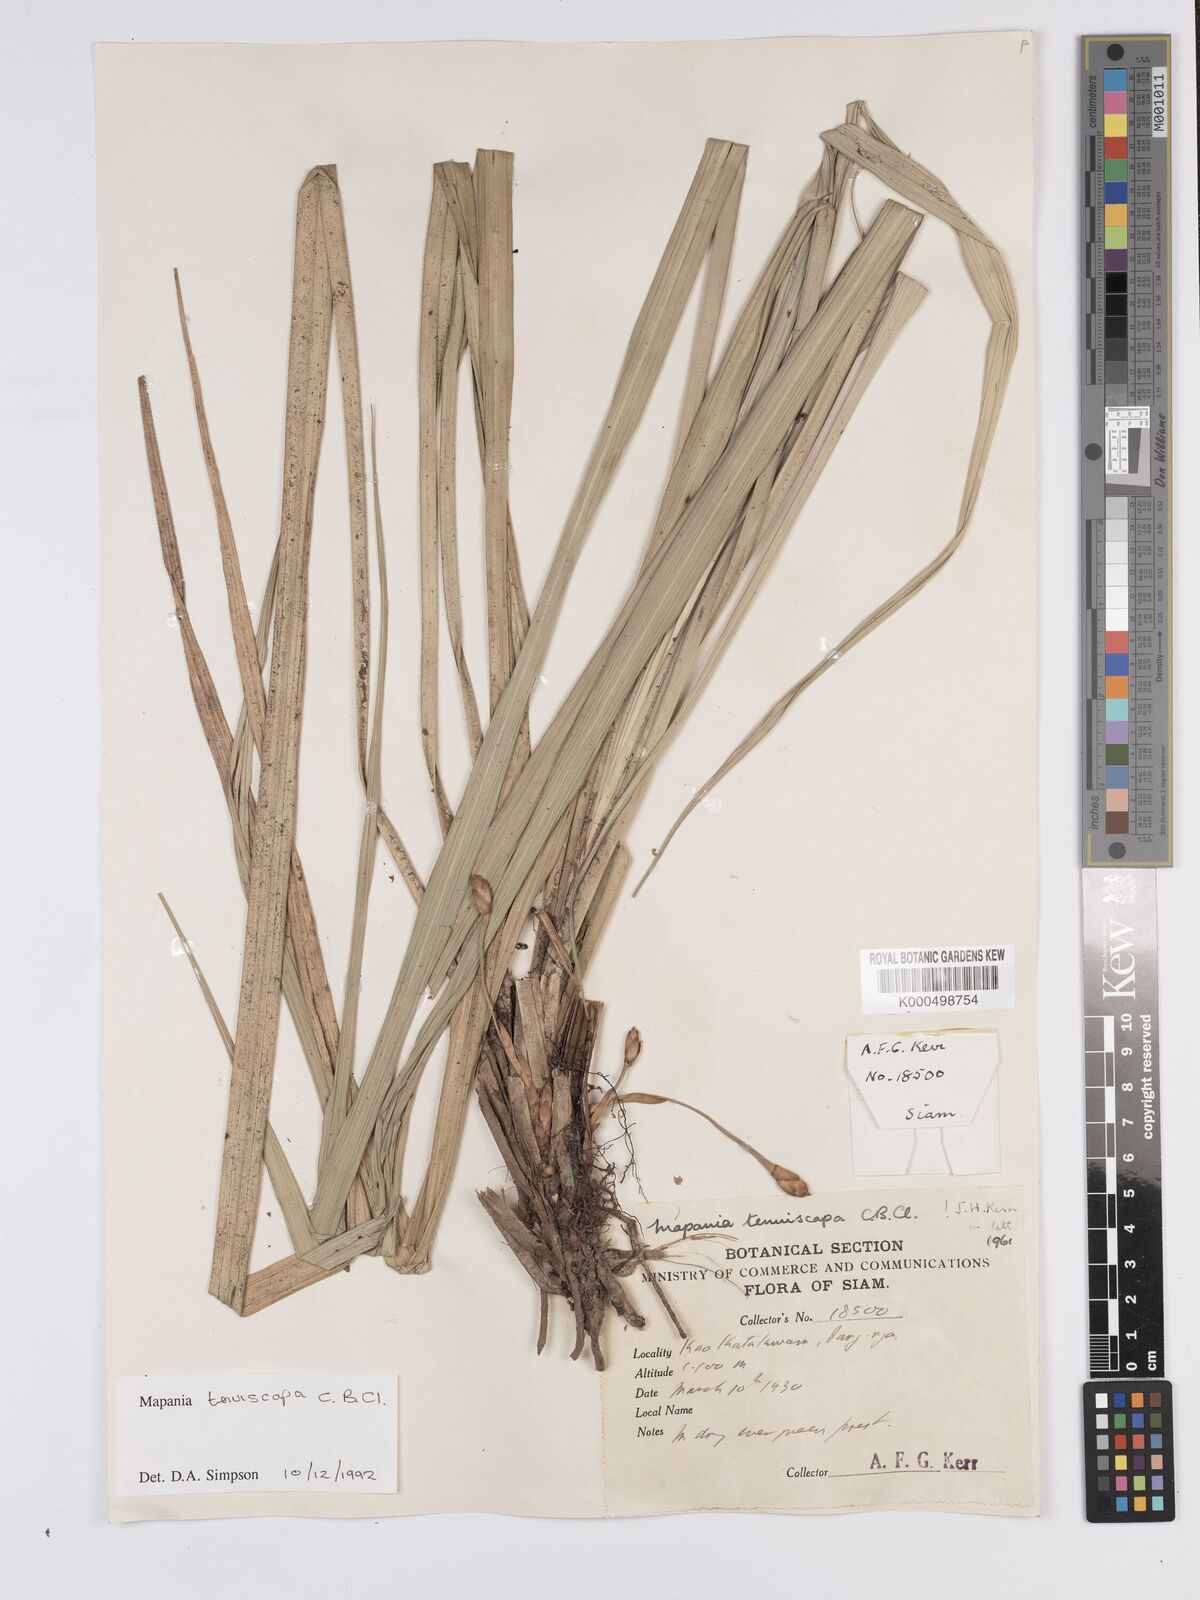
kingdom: Plantae
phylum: Tracheophyta
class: Liliopsida
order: Poales
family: Cyperaceae
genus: Mapania
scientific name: Mapania tenuiscapa
